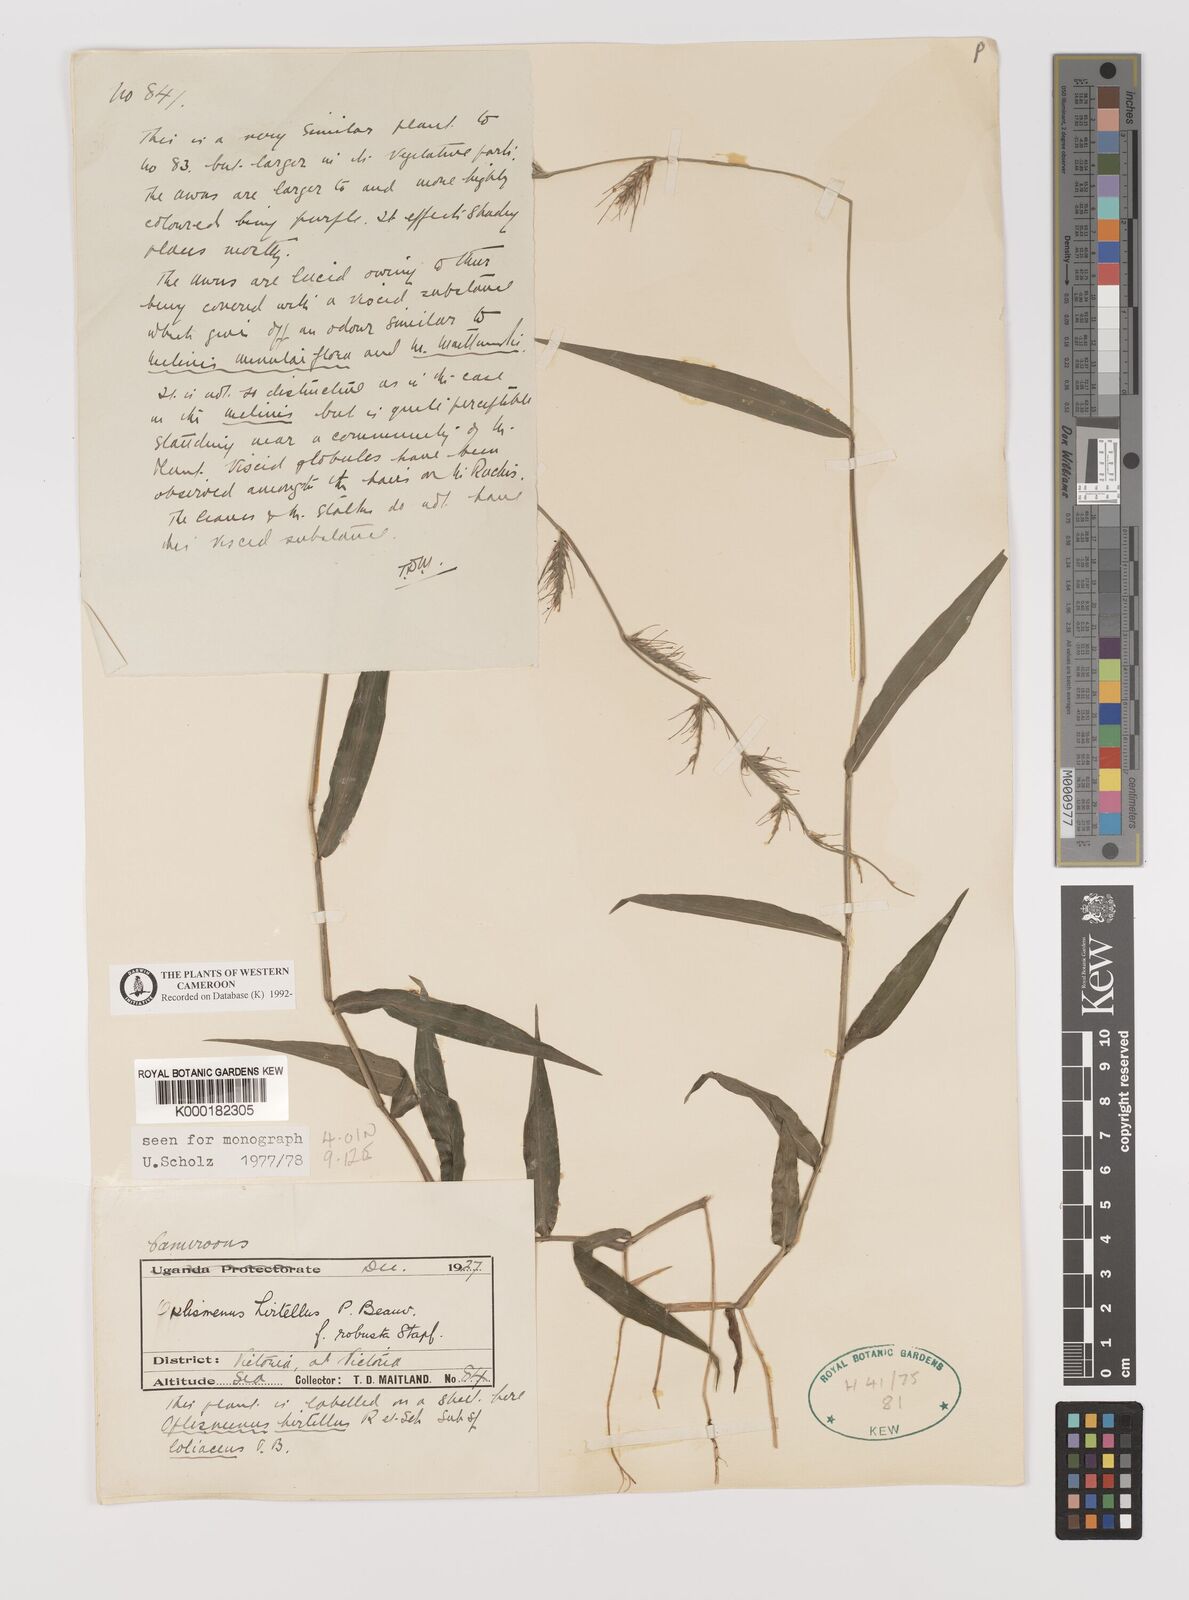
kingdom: Plantae
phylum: Tracheophyta
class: Liliopsida
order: Poales
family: Poaceae
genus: Oplismenus
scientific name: Oplismenus hirtellus
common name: Basketgrass
